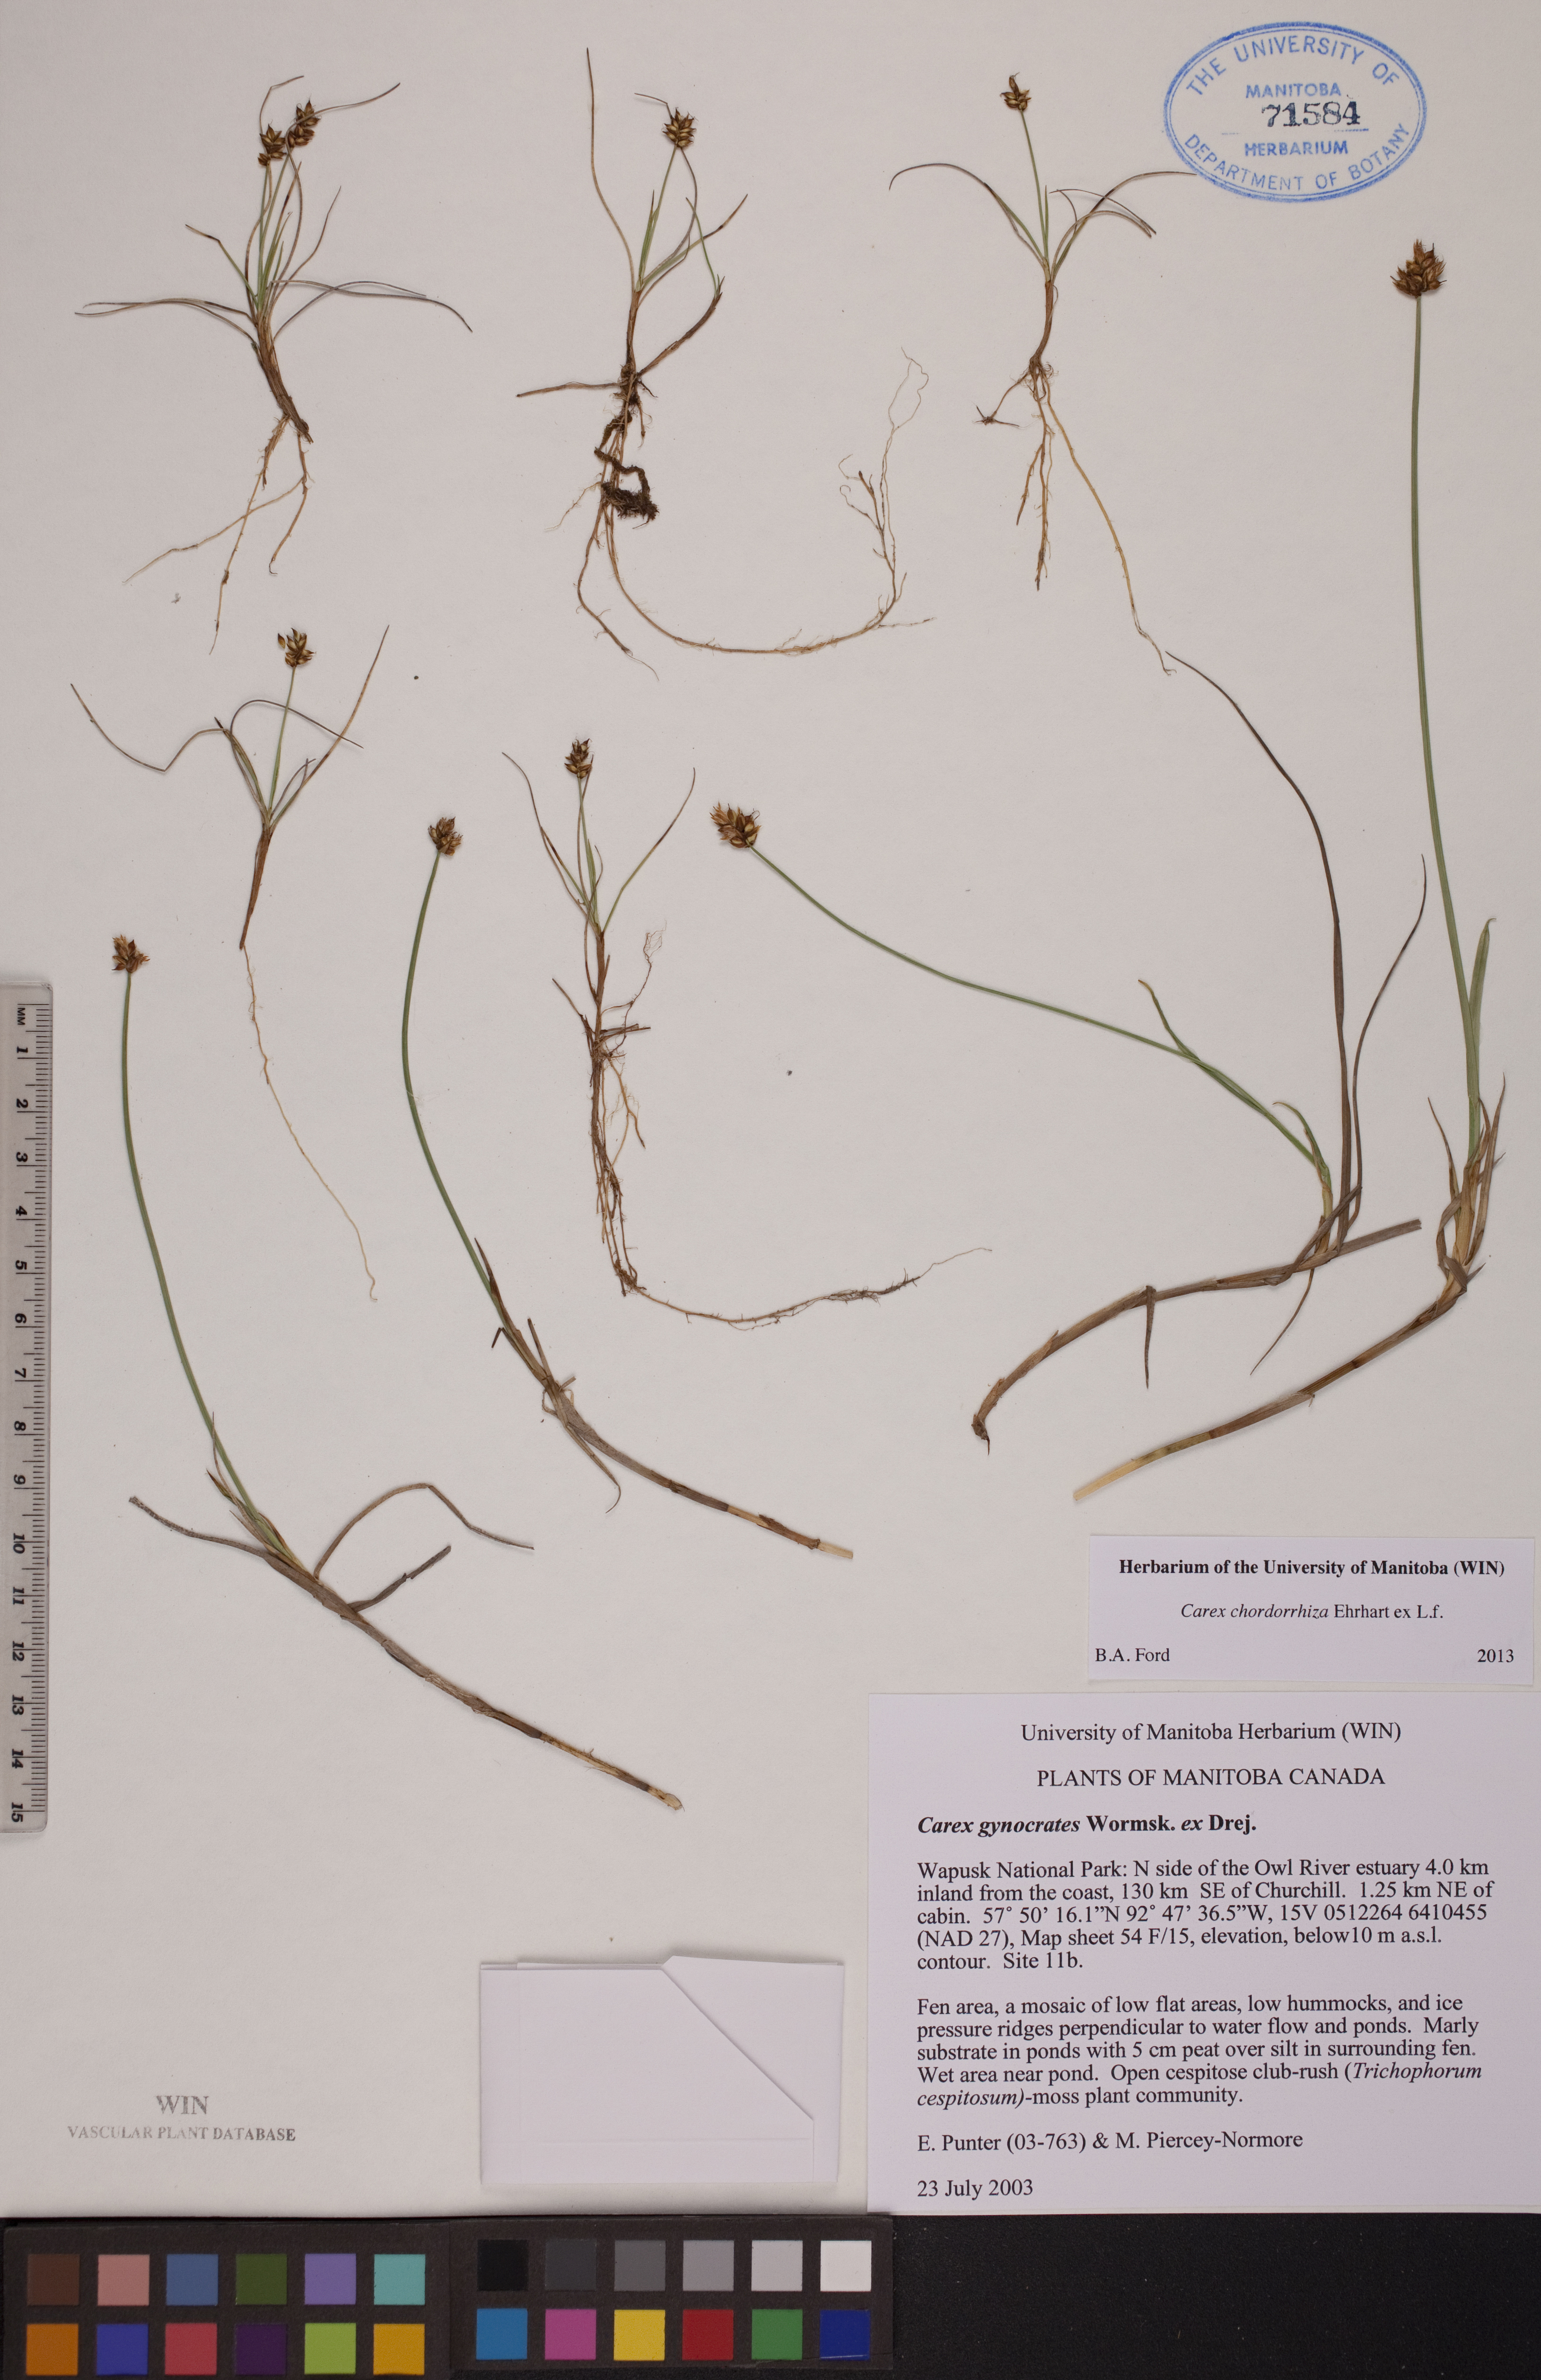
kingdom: Plantae
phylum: Tracheophyta
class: Liliopsida
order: Poales
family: Cyperaceae
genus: Carex
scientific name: Carex chordorrhiza
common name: String sedge
